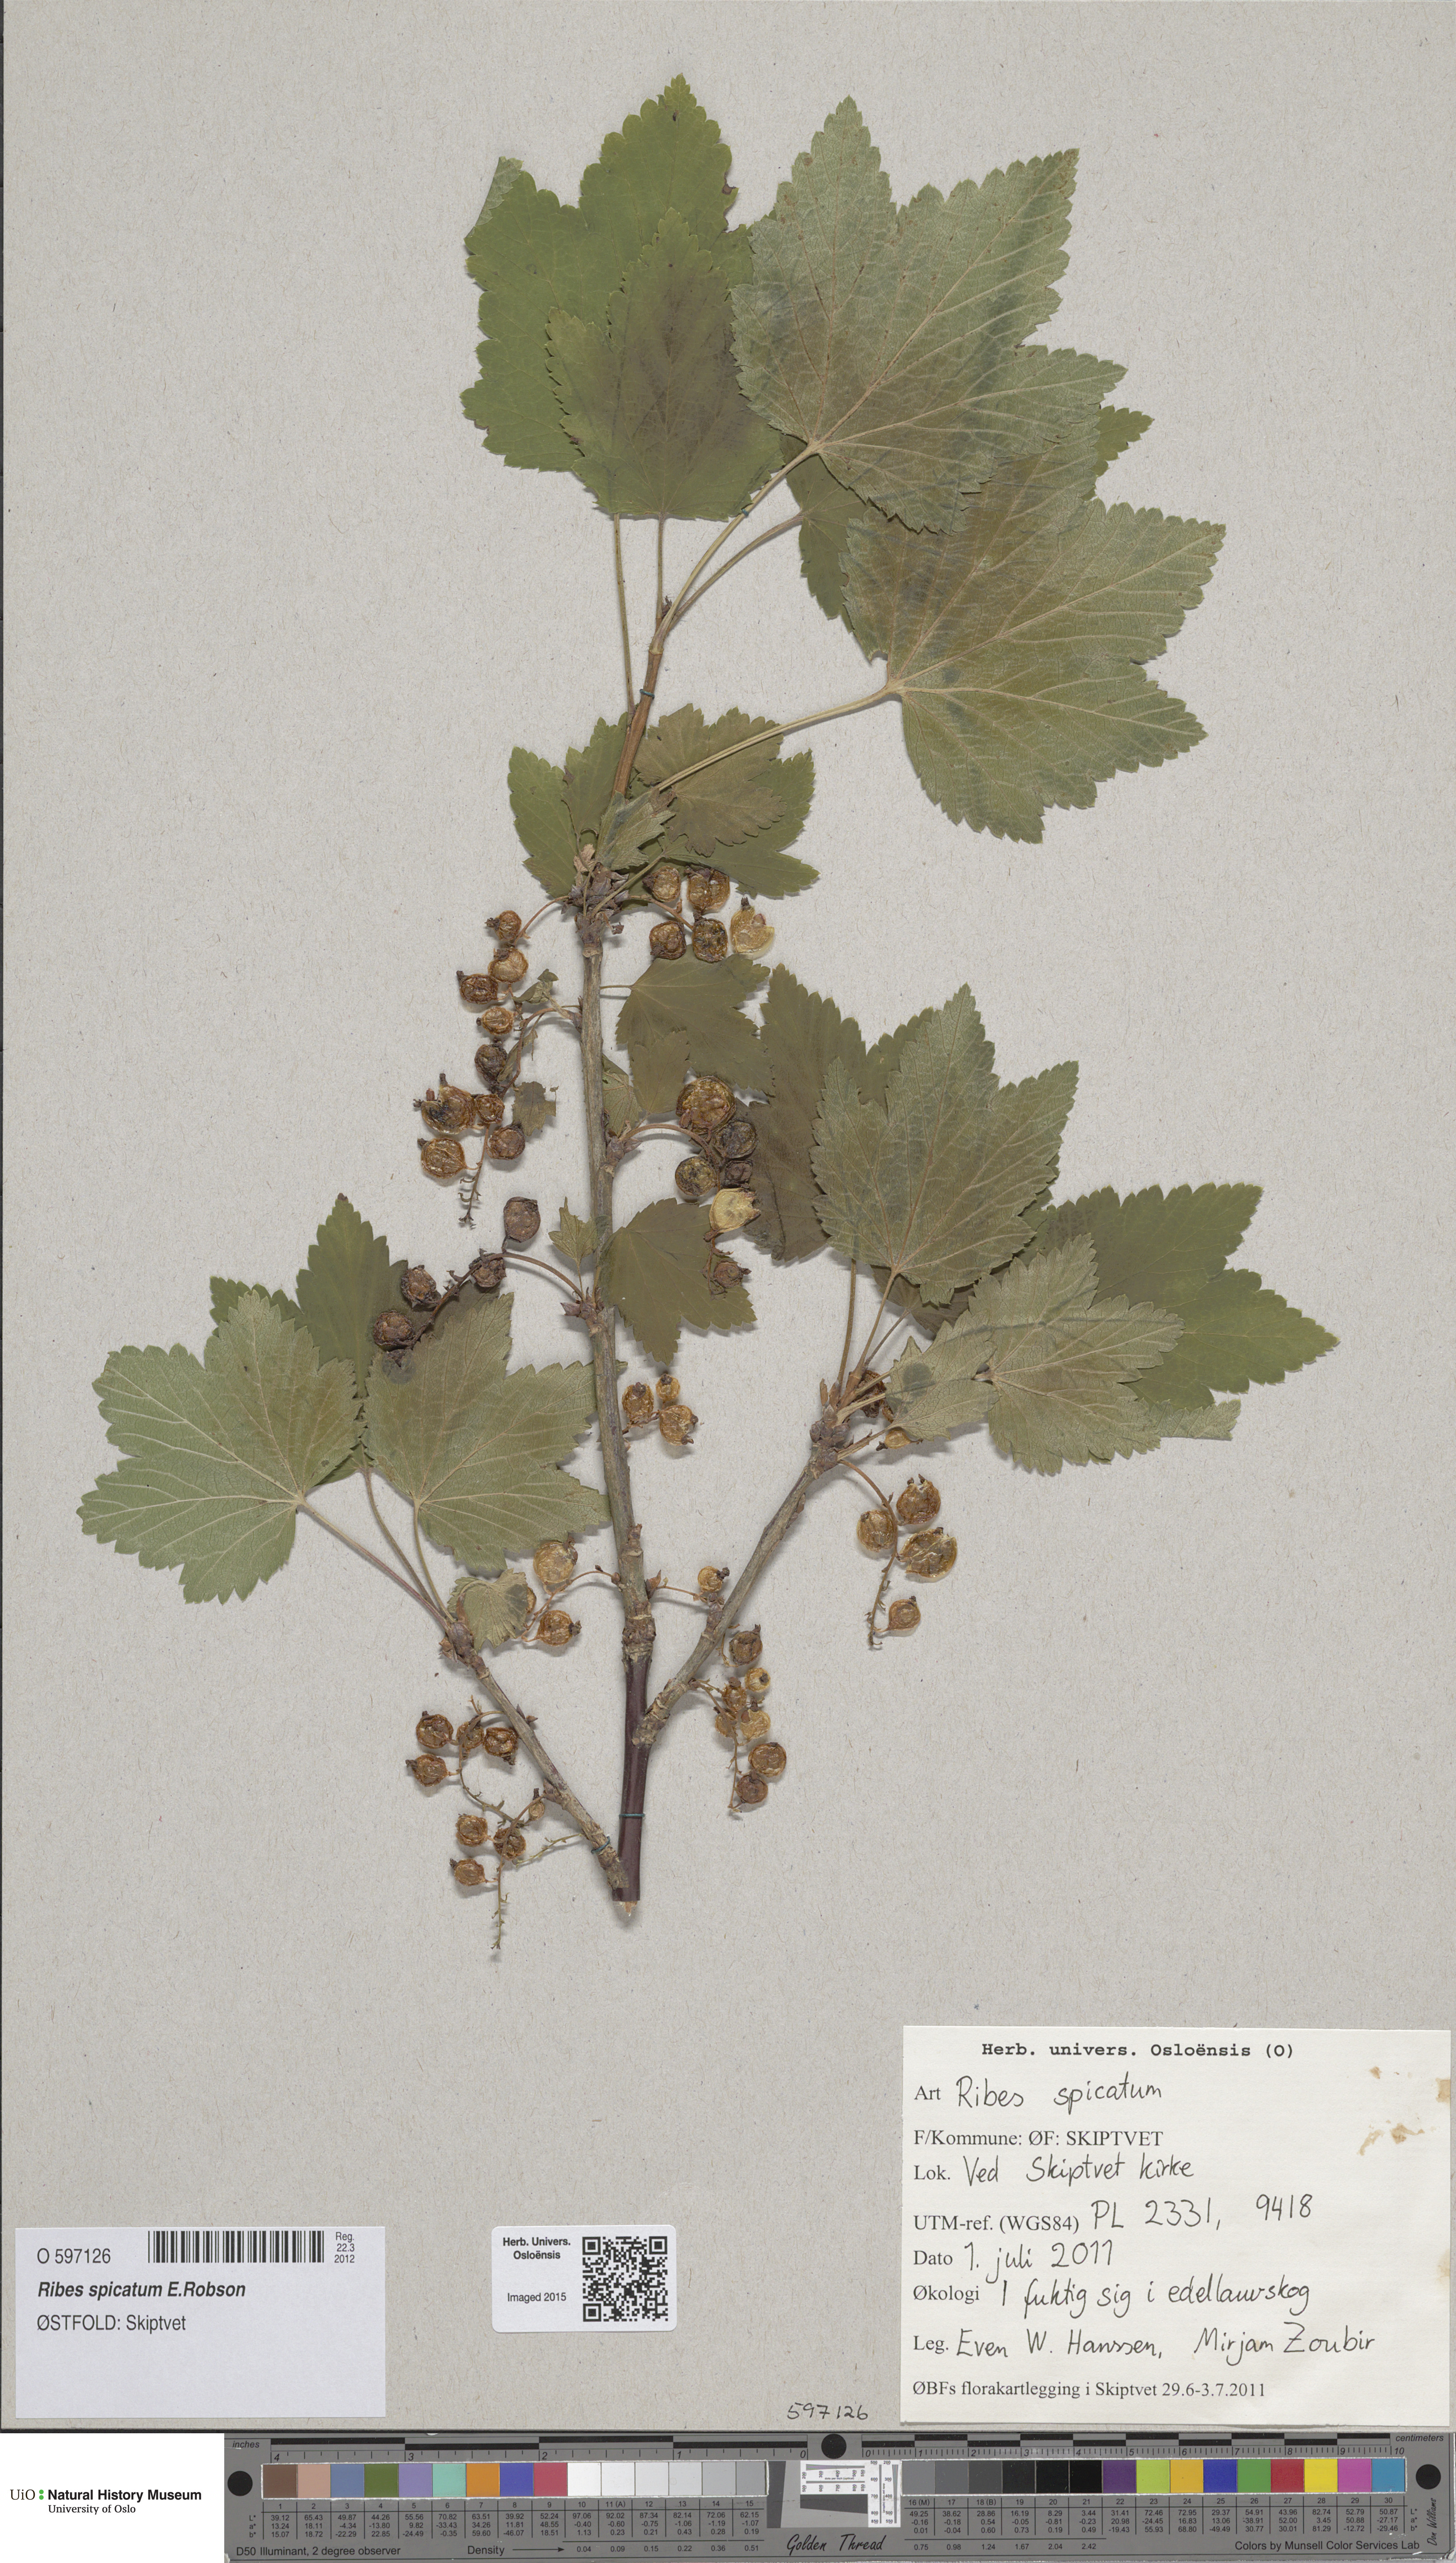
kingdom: Plantae
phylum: Tracheophyta
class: Magnoliopsida
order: Saxifragales
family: Grossulariaceae
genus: Ribes
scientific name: Ribes spicatum
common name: Downy currant
